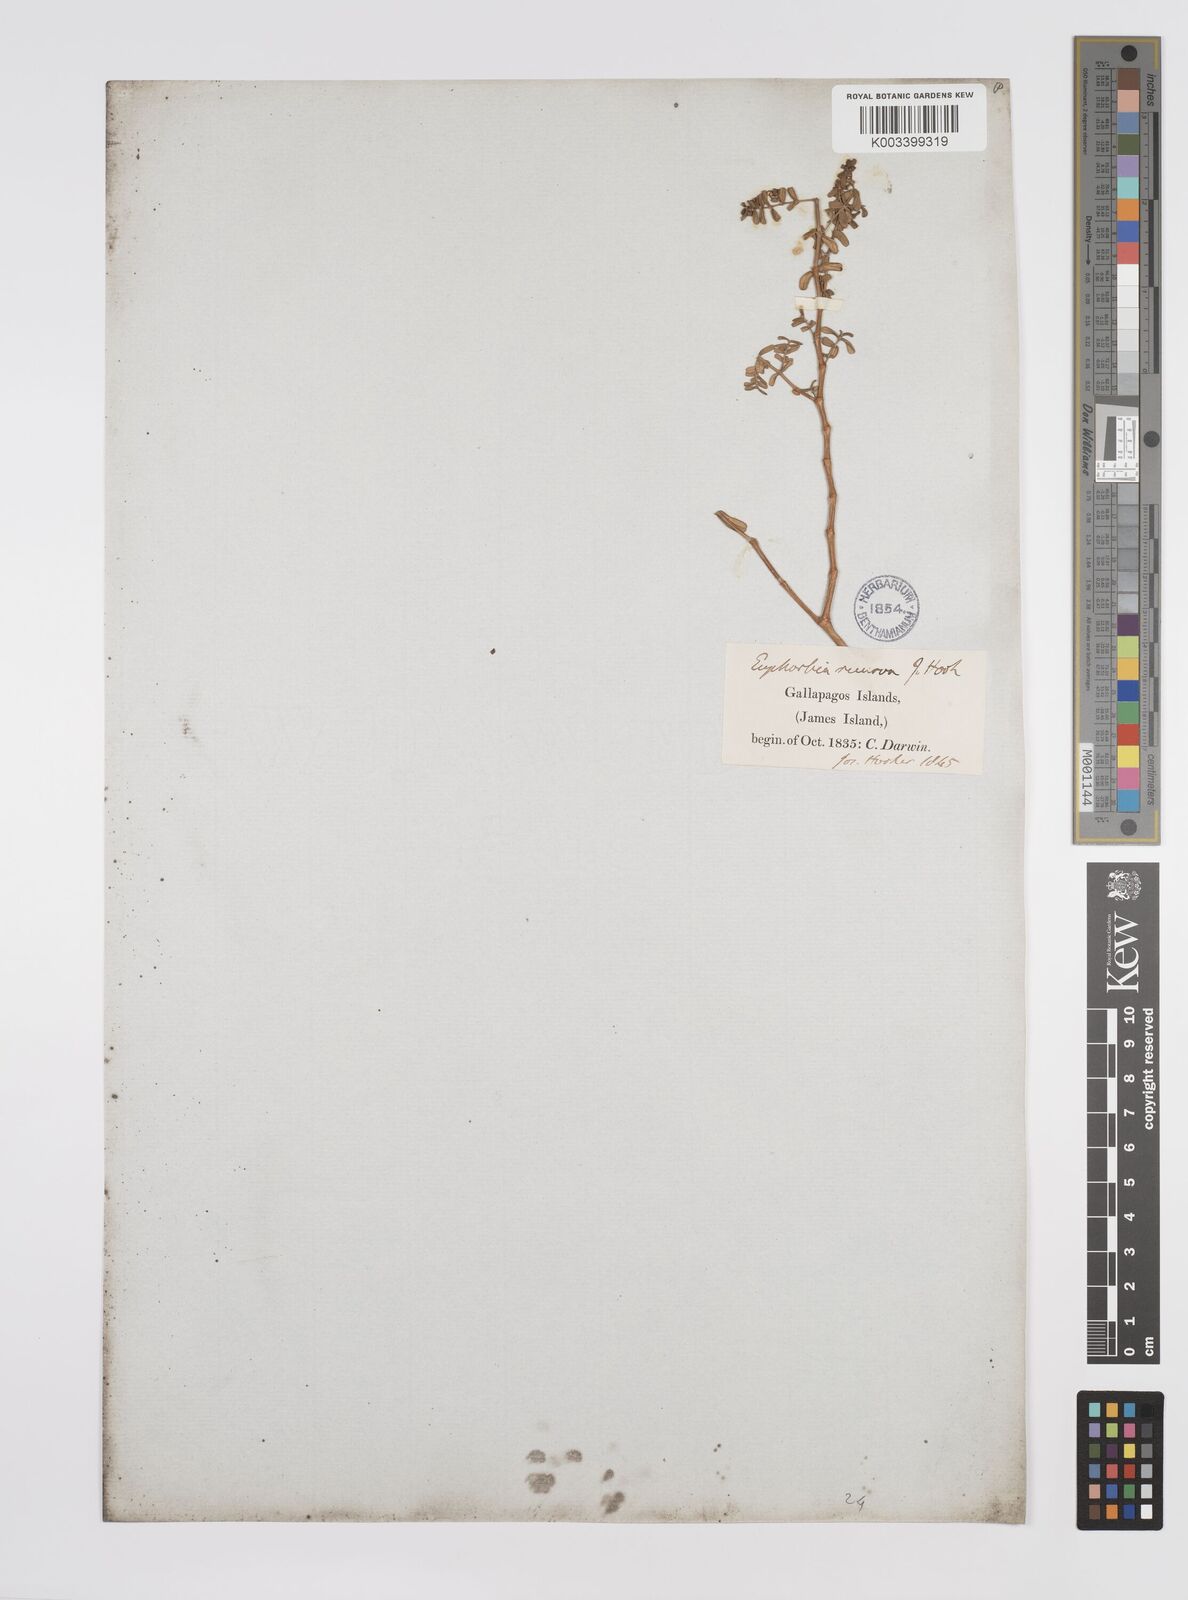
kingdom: Plantae
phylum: Tracheophyta
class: Magnoliopsida
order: Malpighiales
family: Euphorbiaceae
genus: Euphorbia
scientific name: Euphorbia recurva
